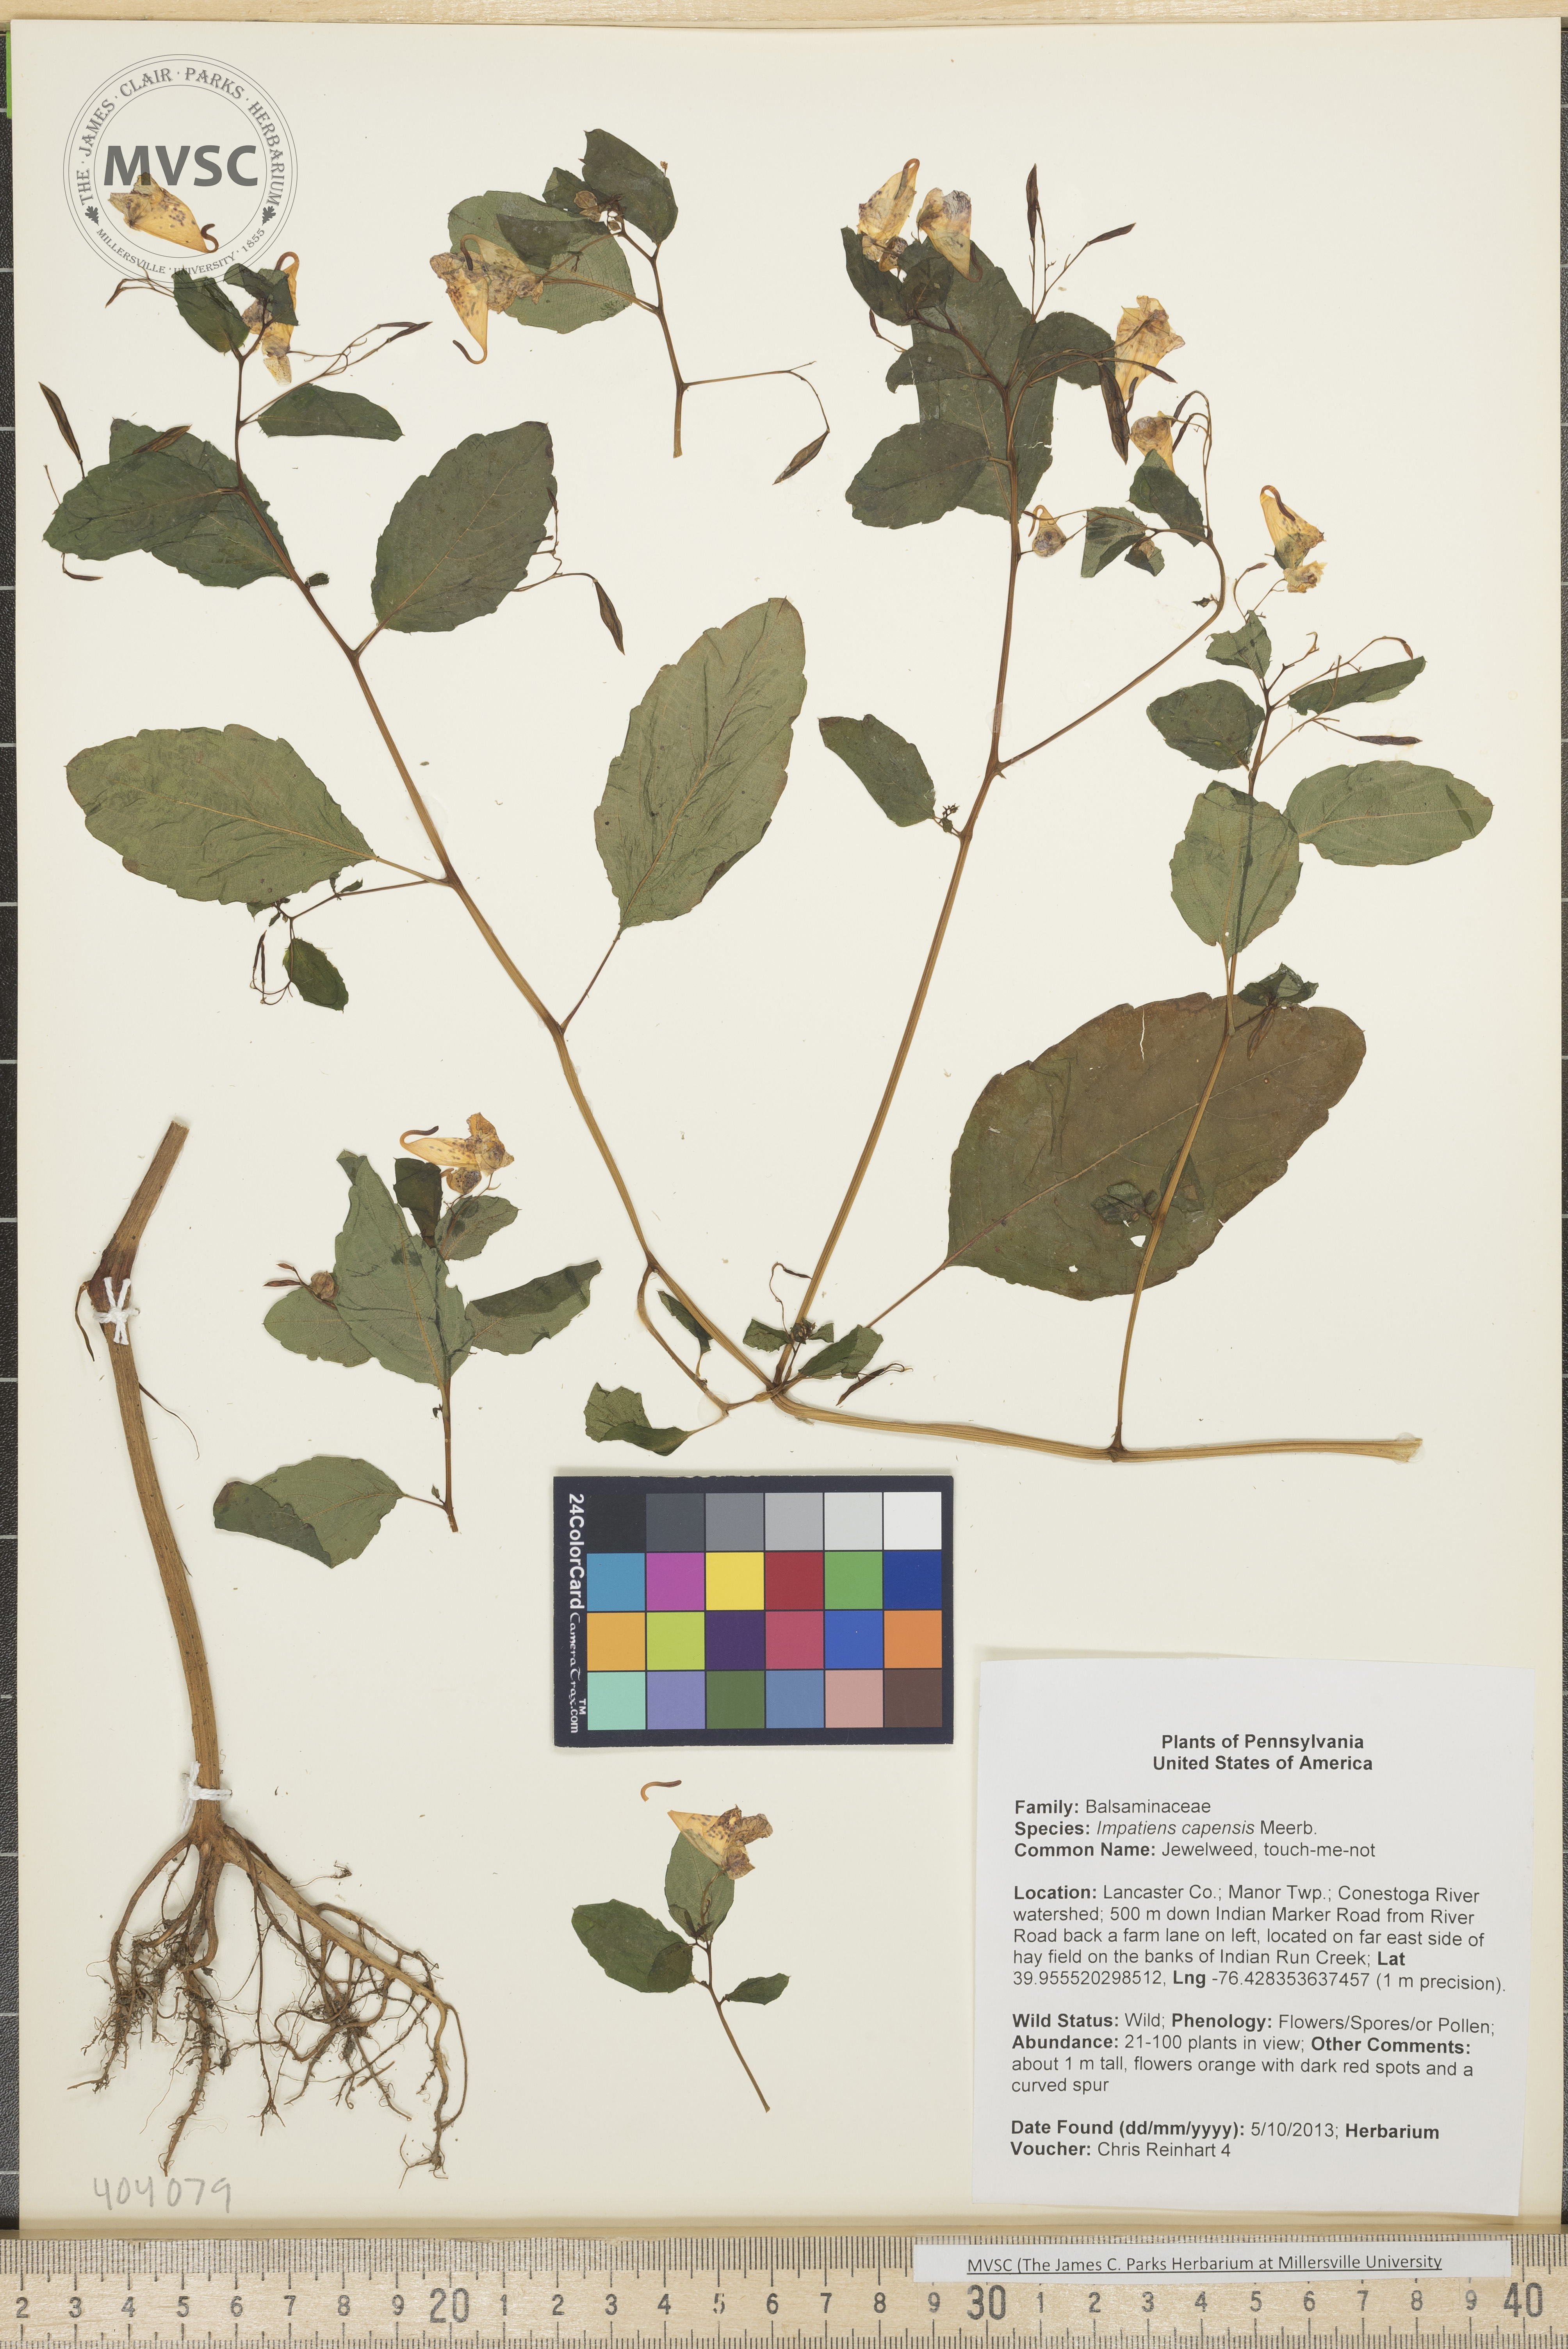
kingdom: Plantae
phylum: Tracheophyta
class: Magnoliopsida
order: Ericales
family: Balsaminaceae
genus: Impatiens
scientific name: Impatiens capensis
